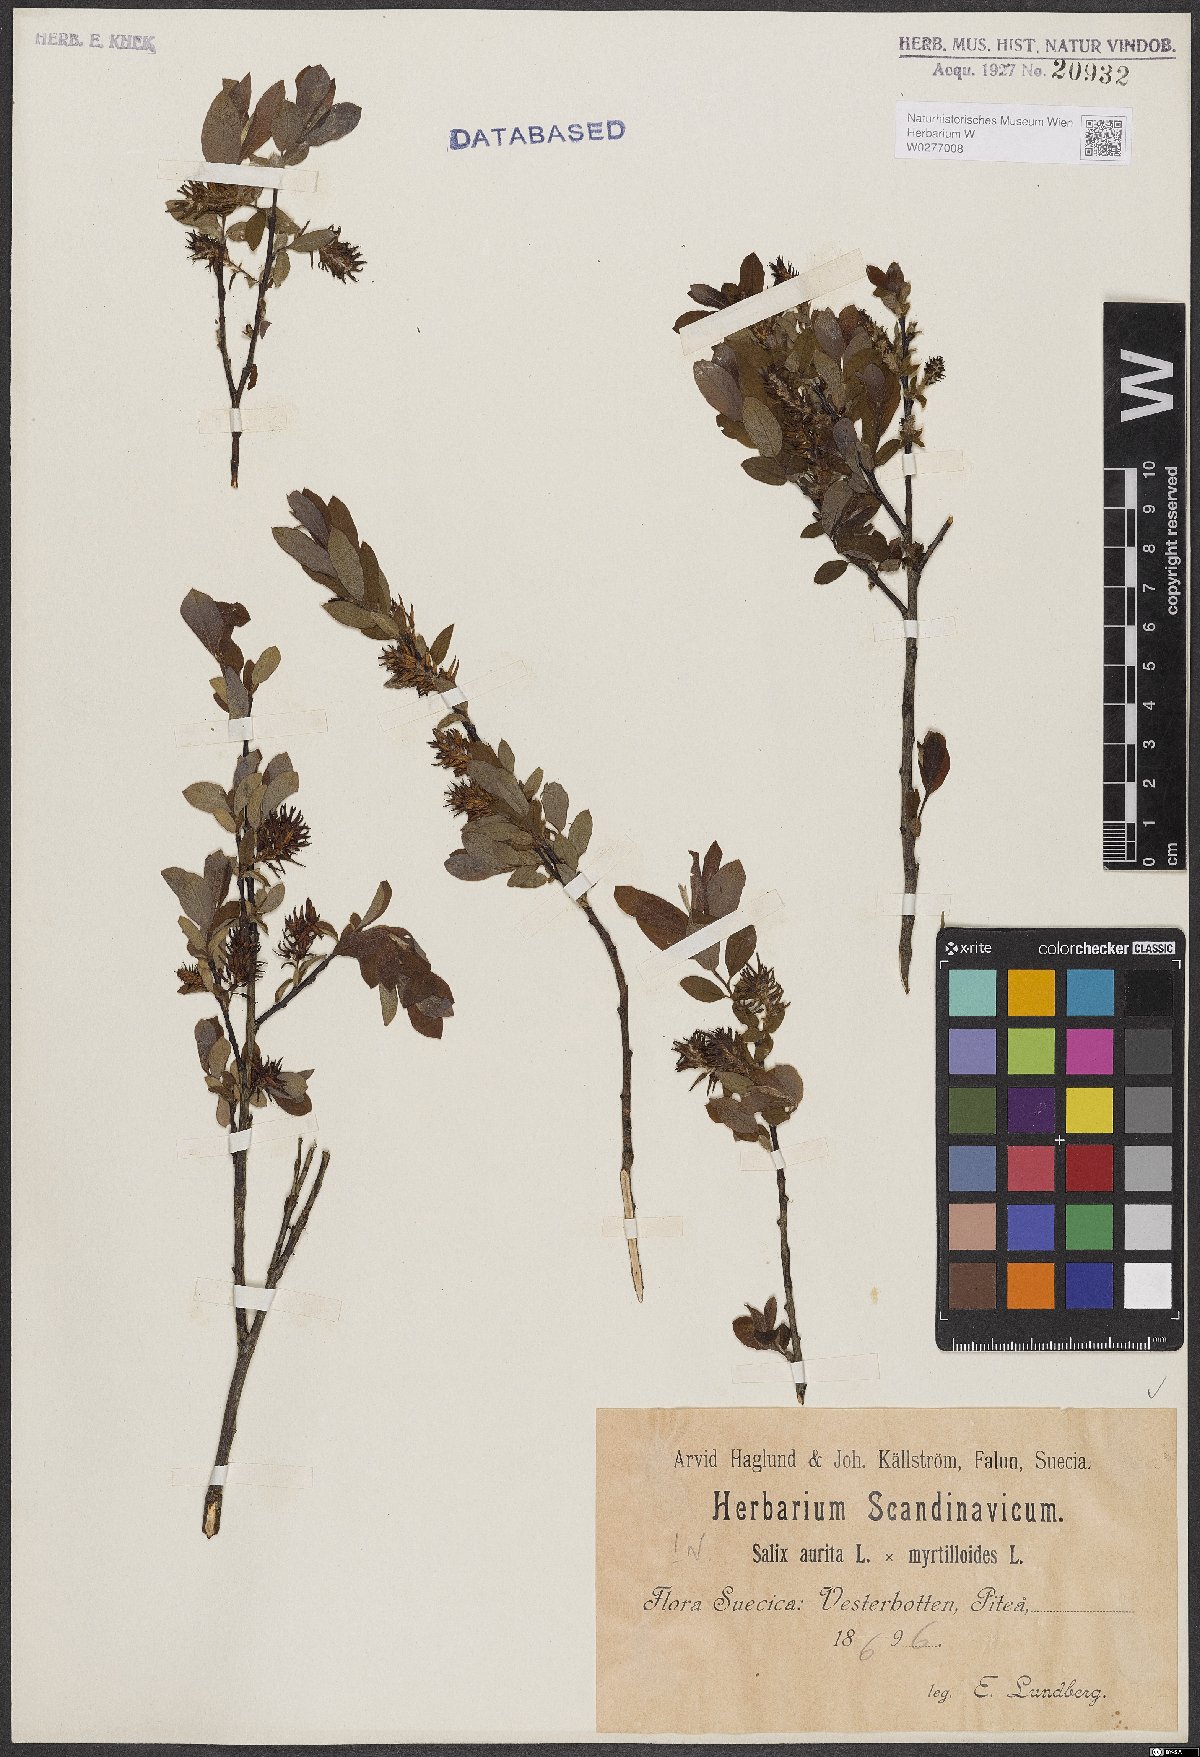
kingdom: Plantae
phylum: Tracheophyta
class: Magnoliopsida
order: Malpighiales
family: Salicaceae
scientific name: Salicaceae
